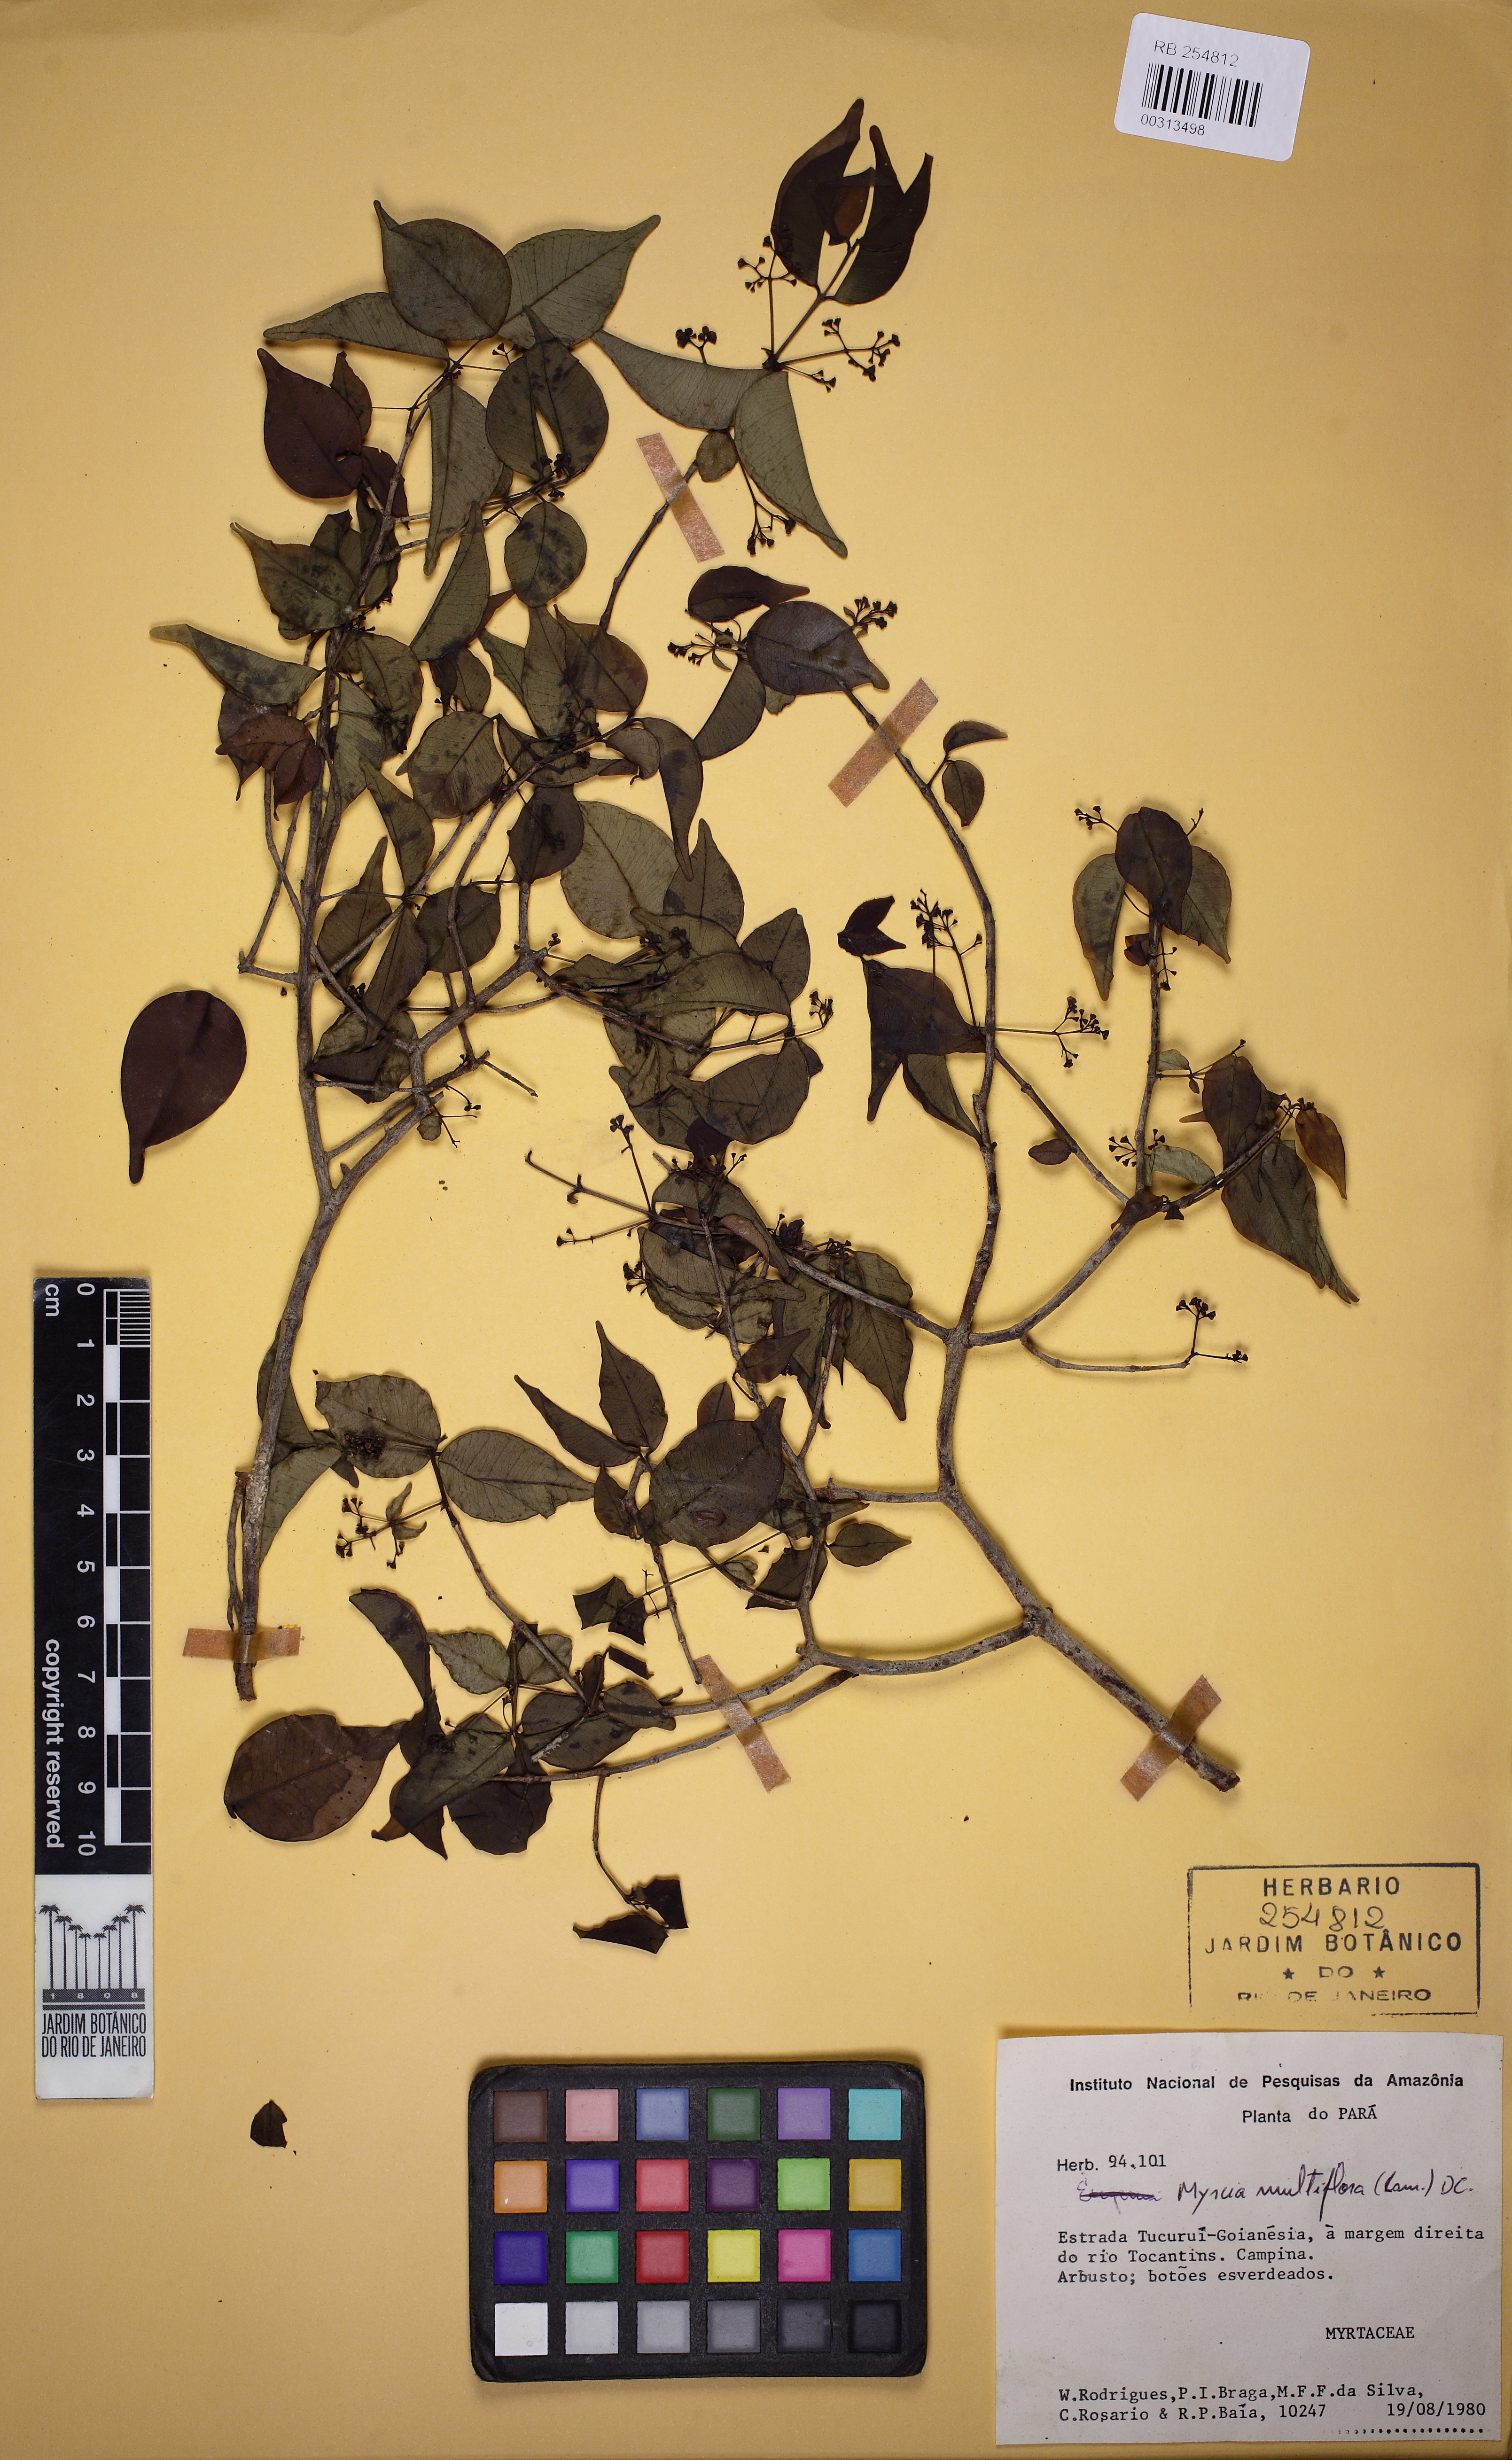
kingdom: Plantae
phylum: Tracheophyta
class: Magnoliopsida
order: Myrtales
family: Myrtaceae
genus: Myrcia
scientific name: Myrcia multiflora
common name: Pedra hume
